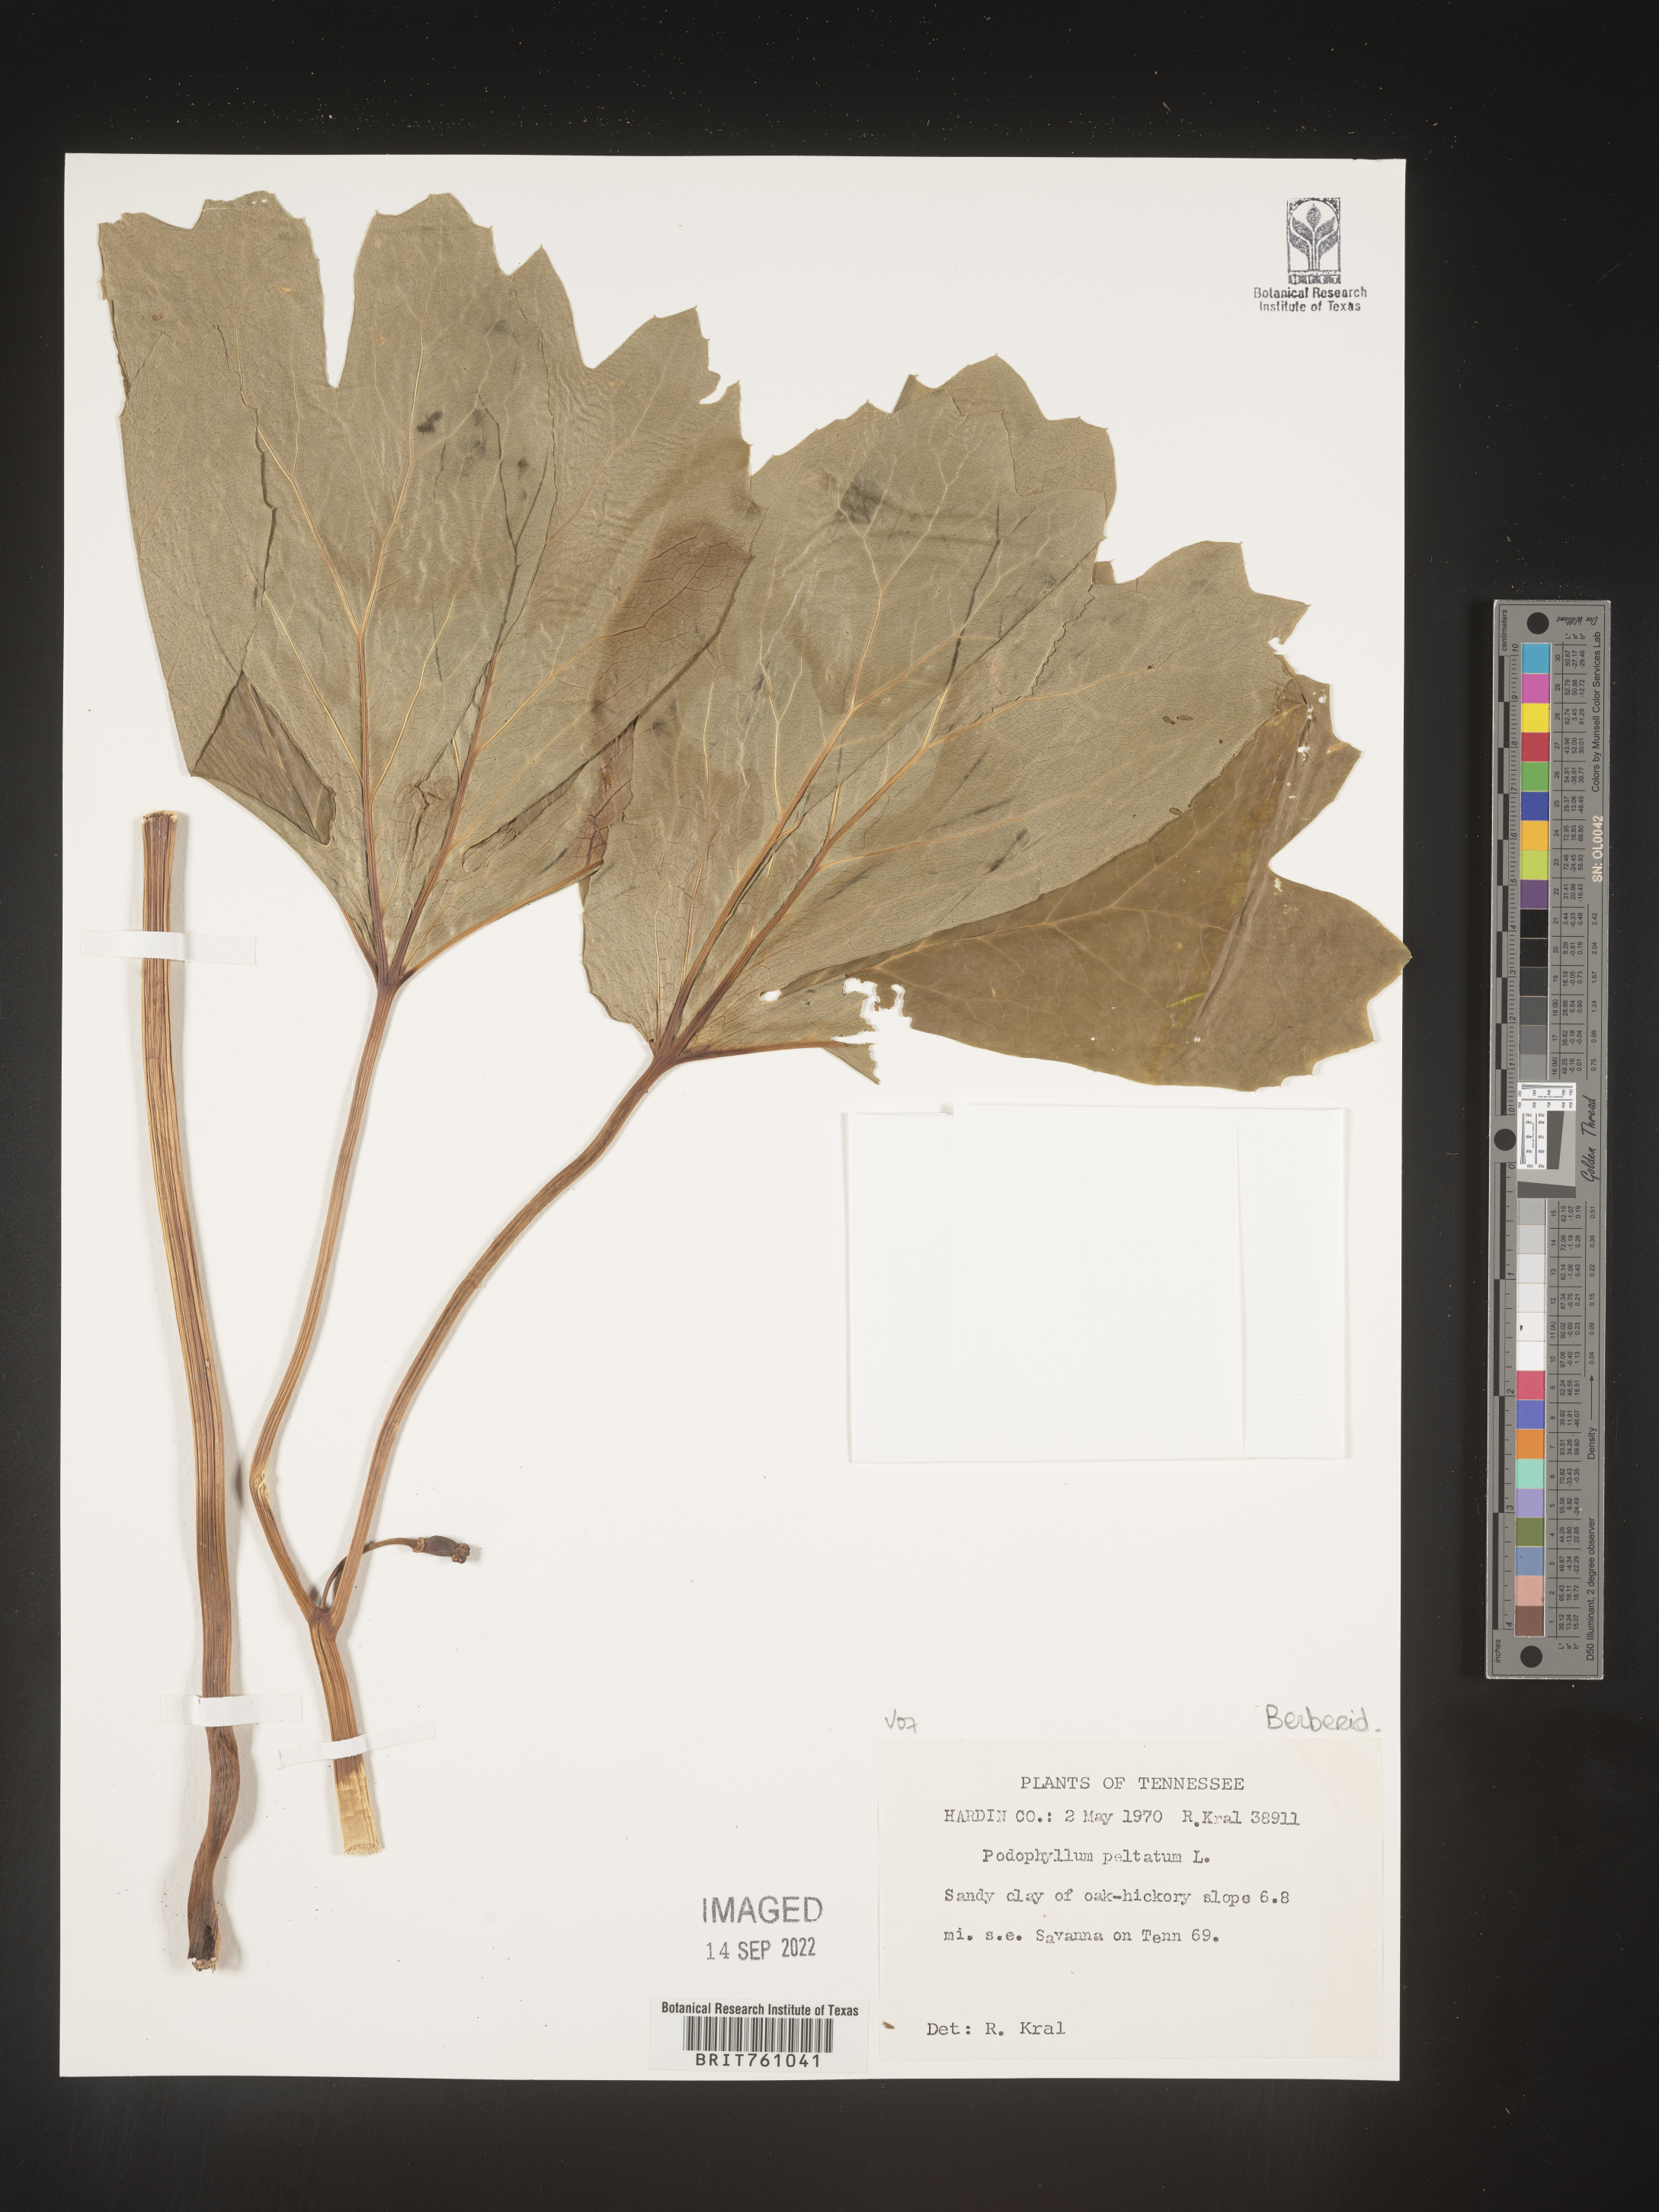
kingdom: Plantae
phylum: Tracheophyta
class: Magnoliopsida
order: Ranunculales
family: Berberidaceae
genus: Podophyllum
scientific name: Podophyllum peltatum
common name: Wild mandrake
